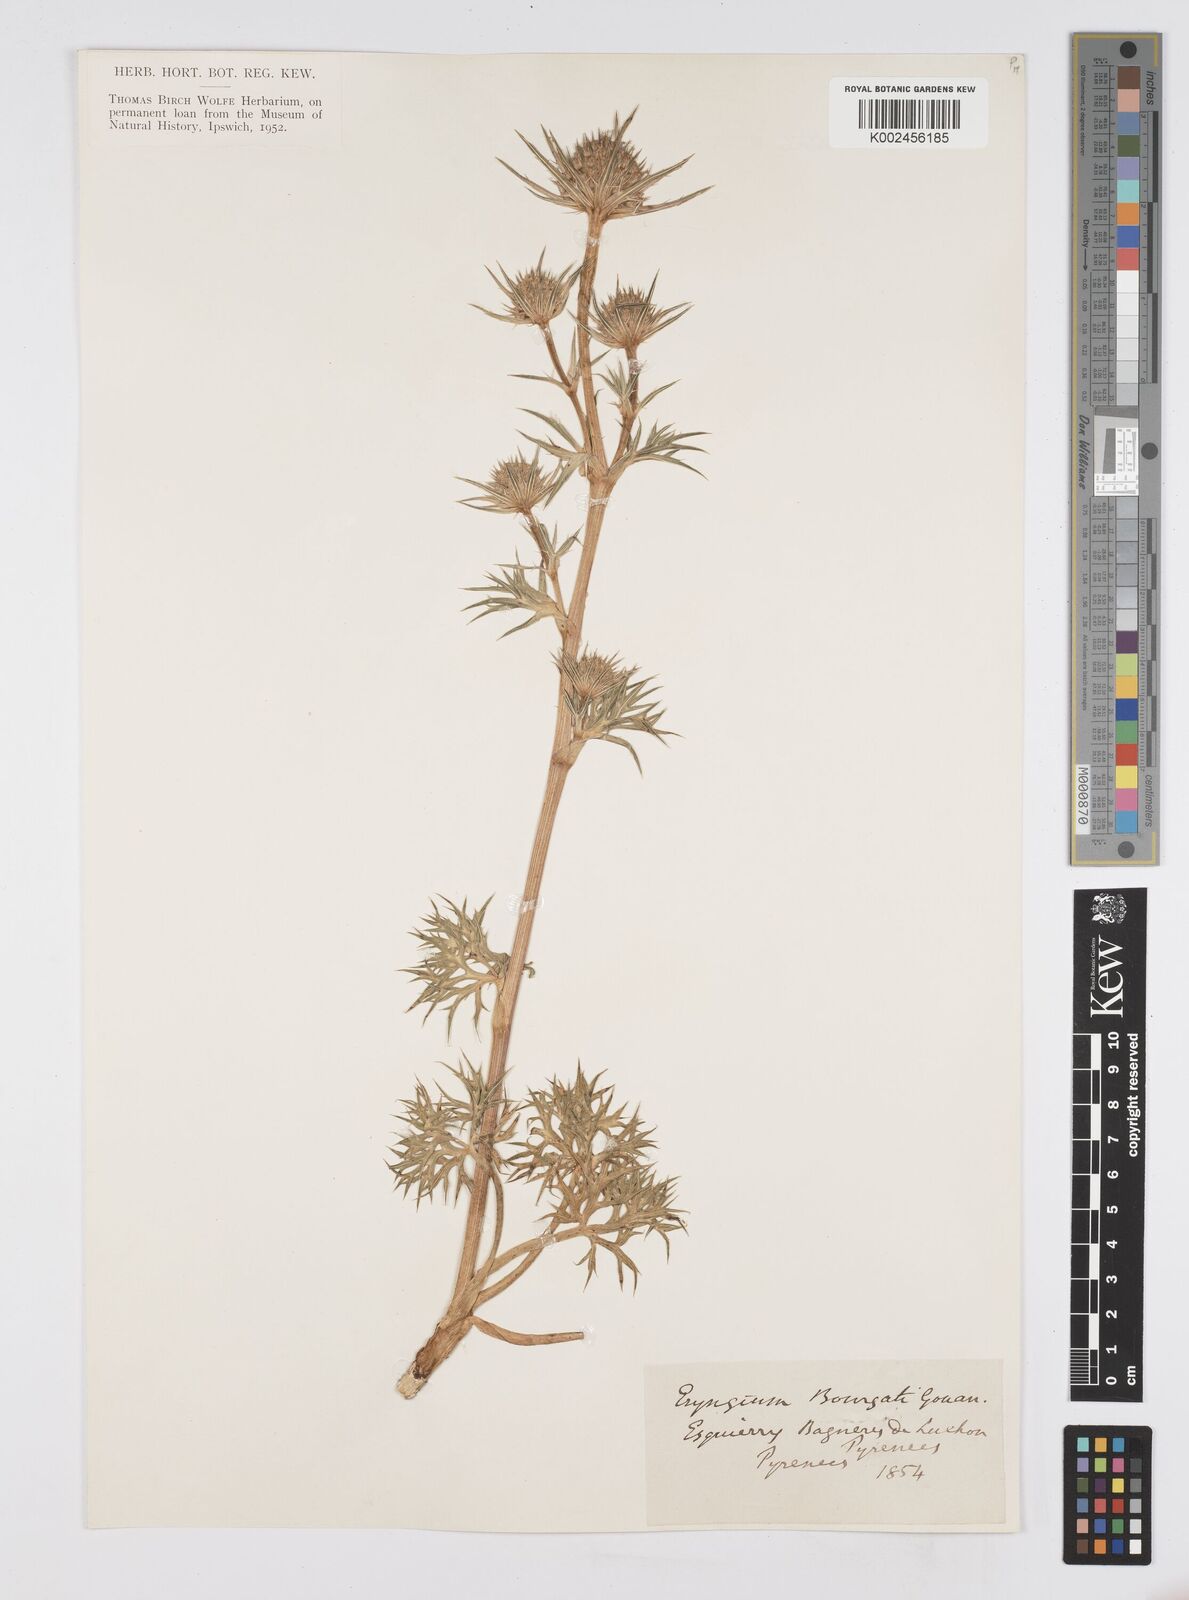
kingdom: Plantae
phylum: Tracheophyta
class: Magnoliopsida
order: Apiales
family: Apiaceae
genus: Eryngium
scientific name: Eryngium bourgatii
